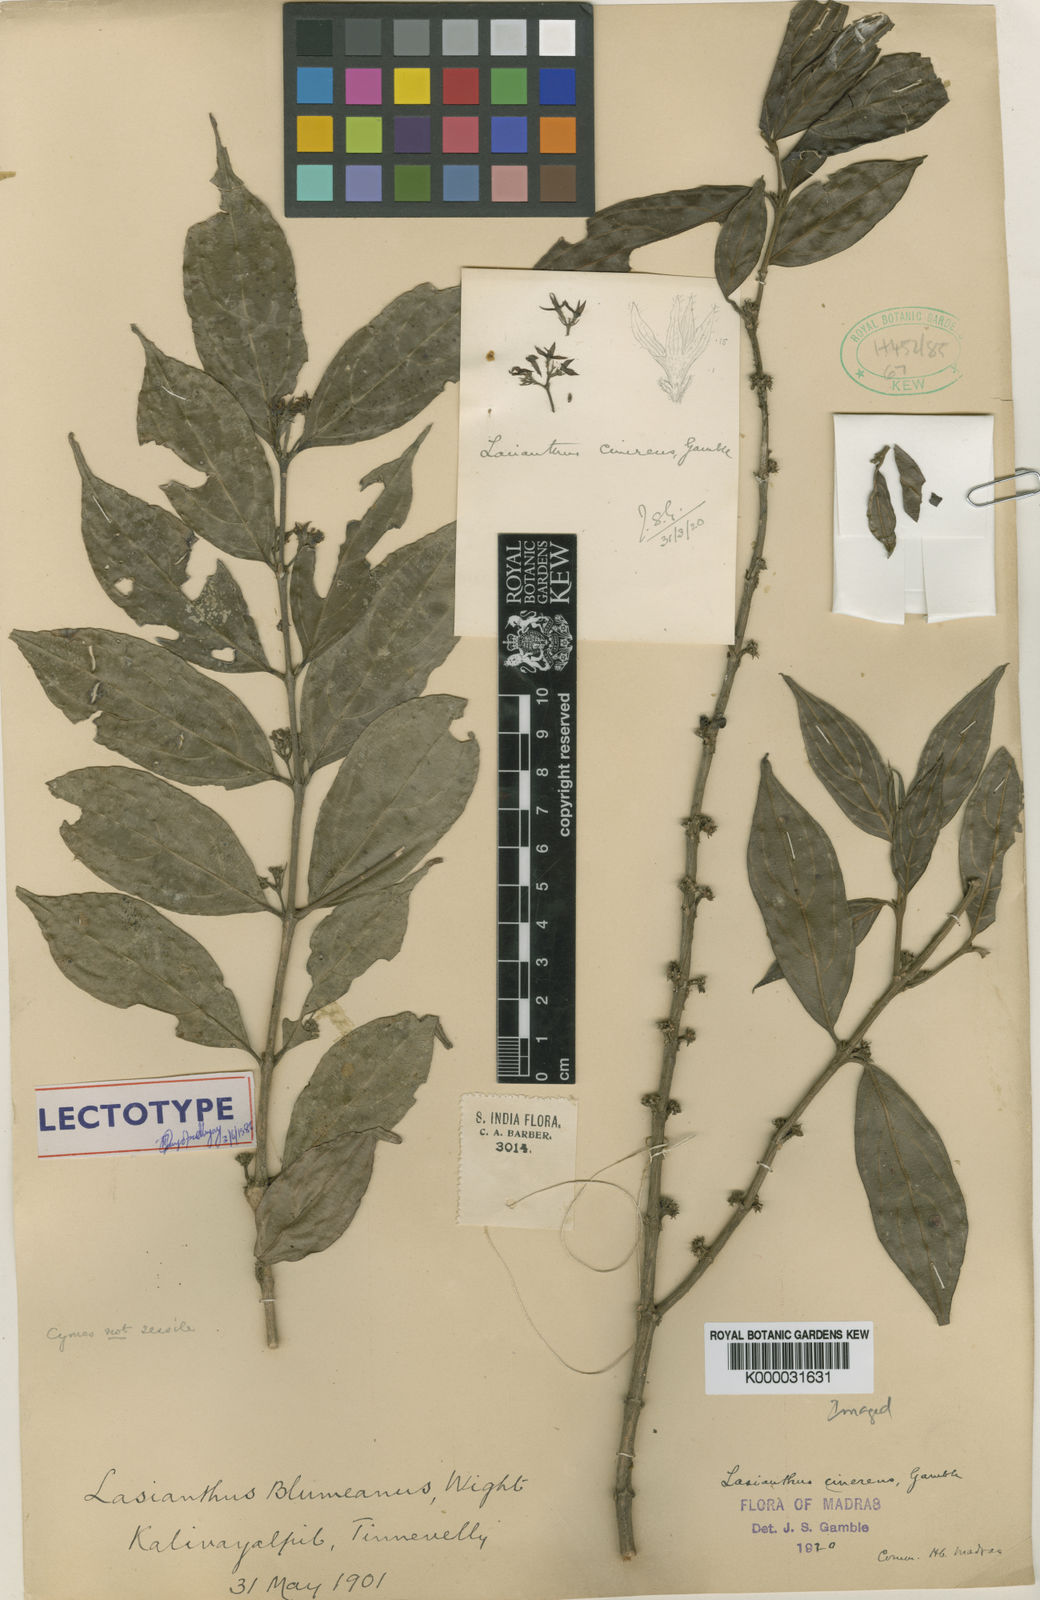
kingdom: Plantae
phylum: Tracheophyta
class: Magnoliopsida
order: Gentianales
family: Rubiaceae
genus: Lasianthus
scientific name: Lasianthus cinereus
